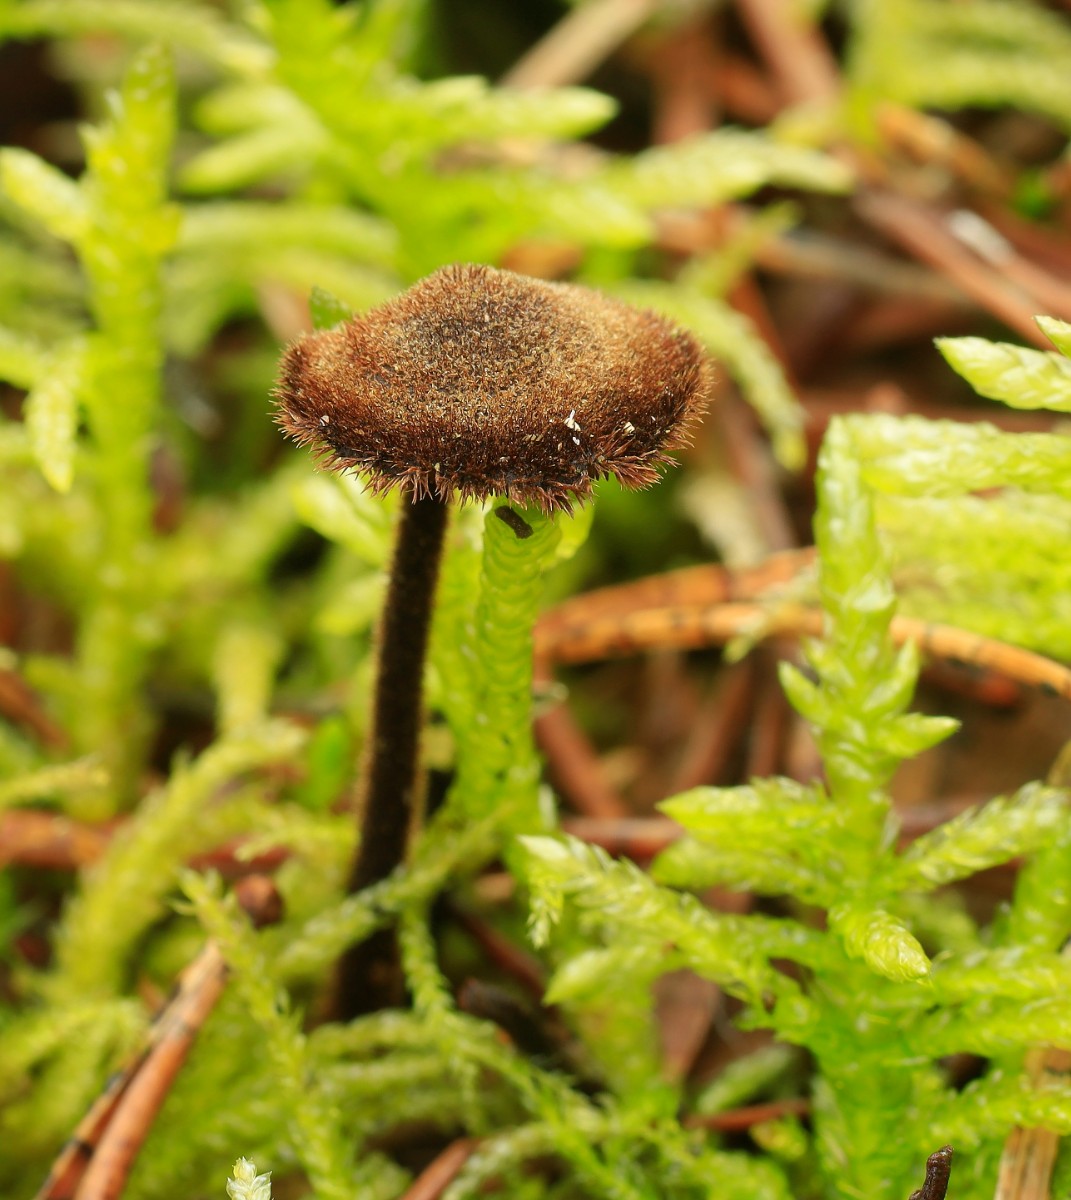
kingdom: Fungi
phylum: Basidiomycota
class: Agaricomycetes
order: Russulales
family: Auriscalpiaceae
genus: Auriscalpium
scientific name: Auriscalpium vulgare
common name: koglepigsvamp
